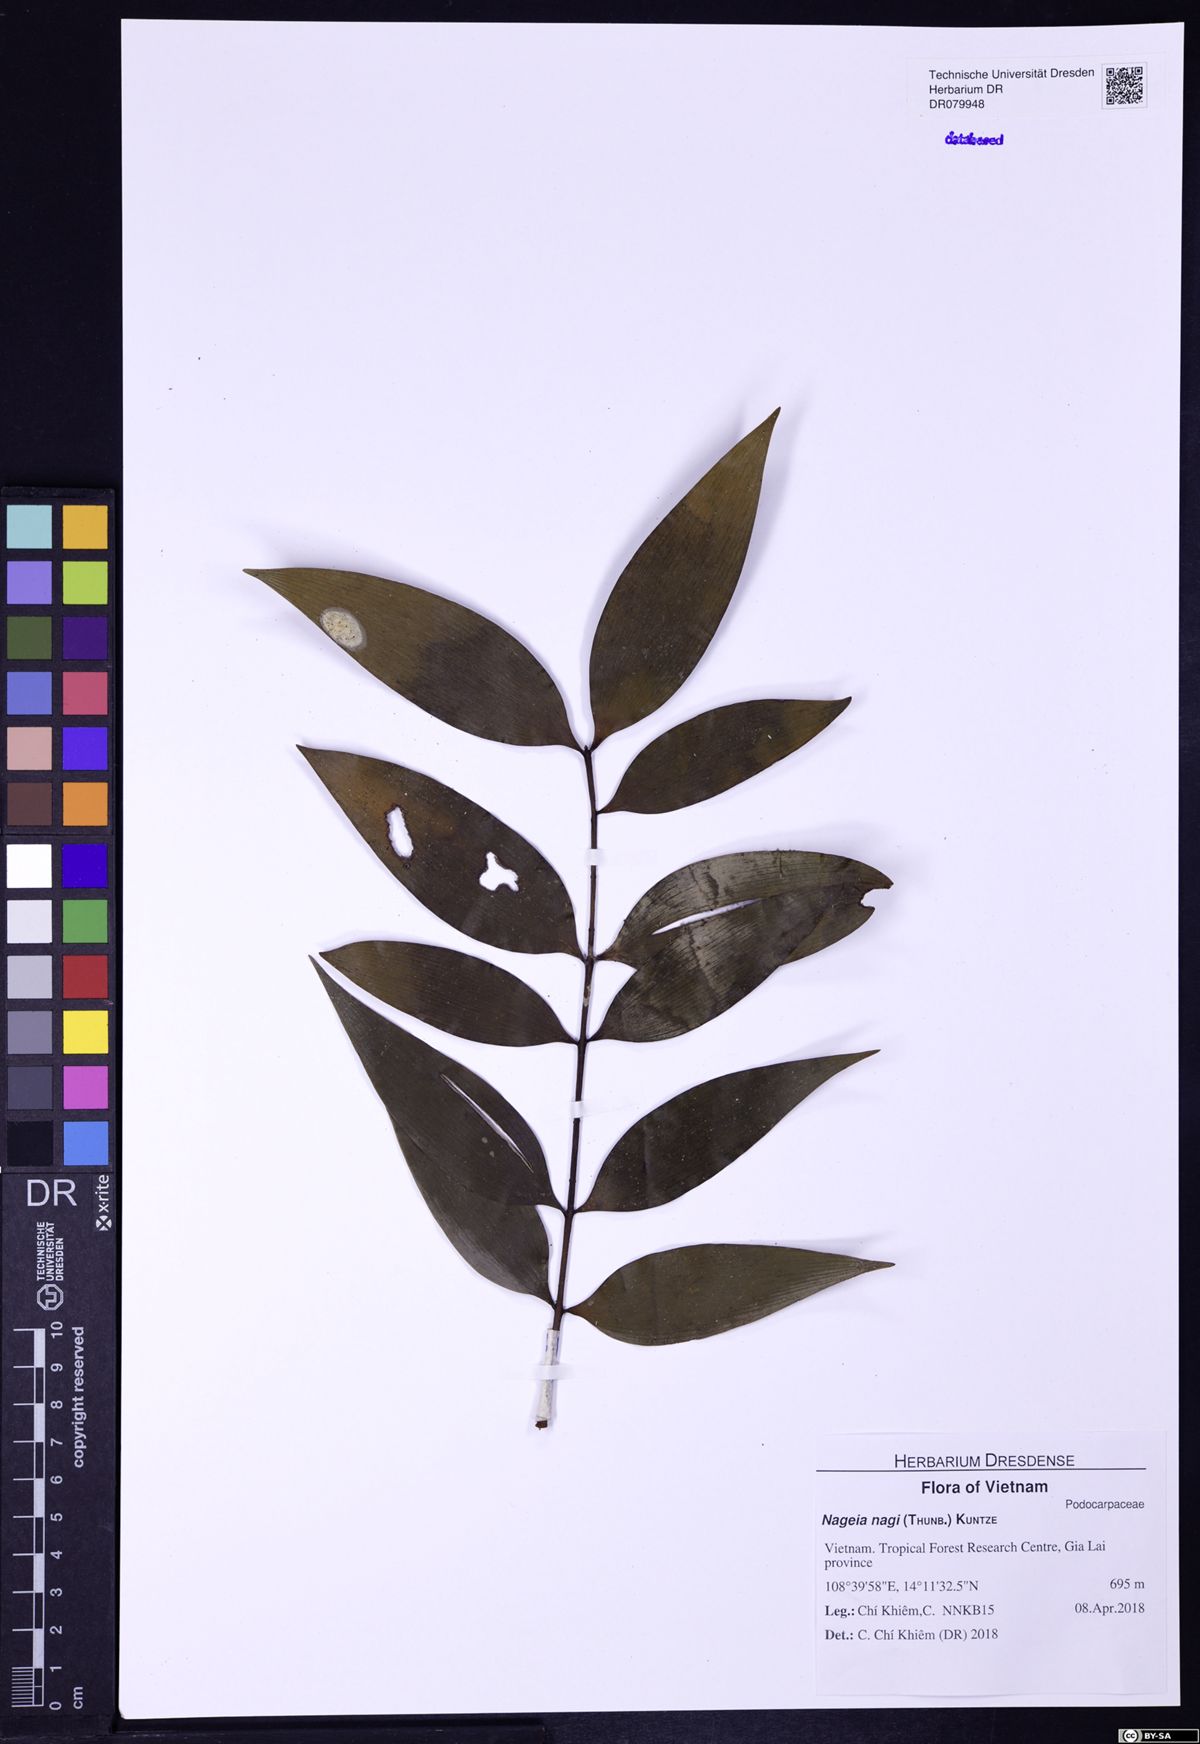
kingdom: Plantae
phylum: Tracheophyta
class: Pinopsida
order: Pinales
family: Podocarpaceae
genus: Nageia
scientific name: Nageia nagi
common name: Kaphal
